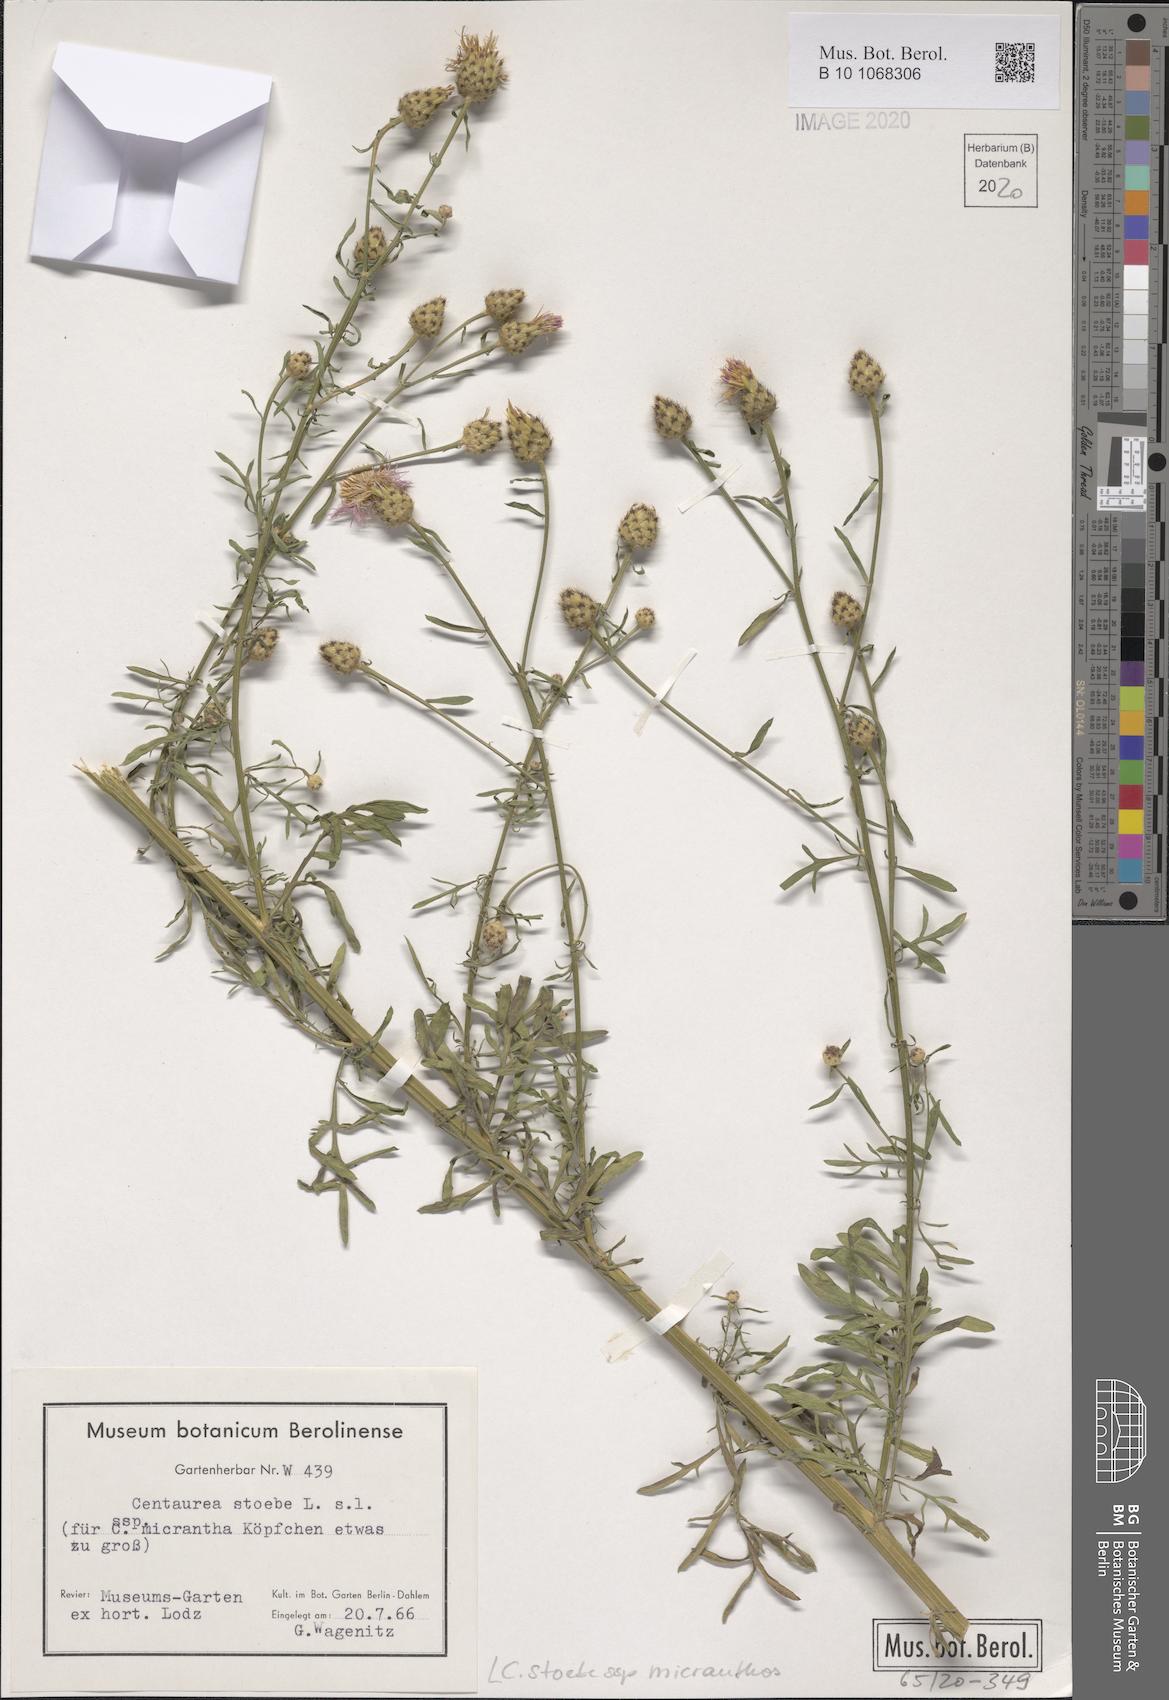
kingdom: Plantae
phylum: Tracheophyta
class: Magnoliopsida
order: Asterales
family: Asteraceae
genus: Centaurea
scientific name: Centaurea australis
